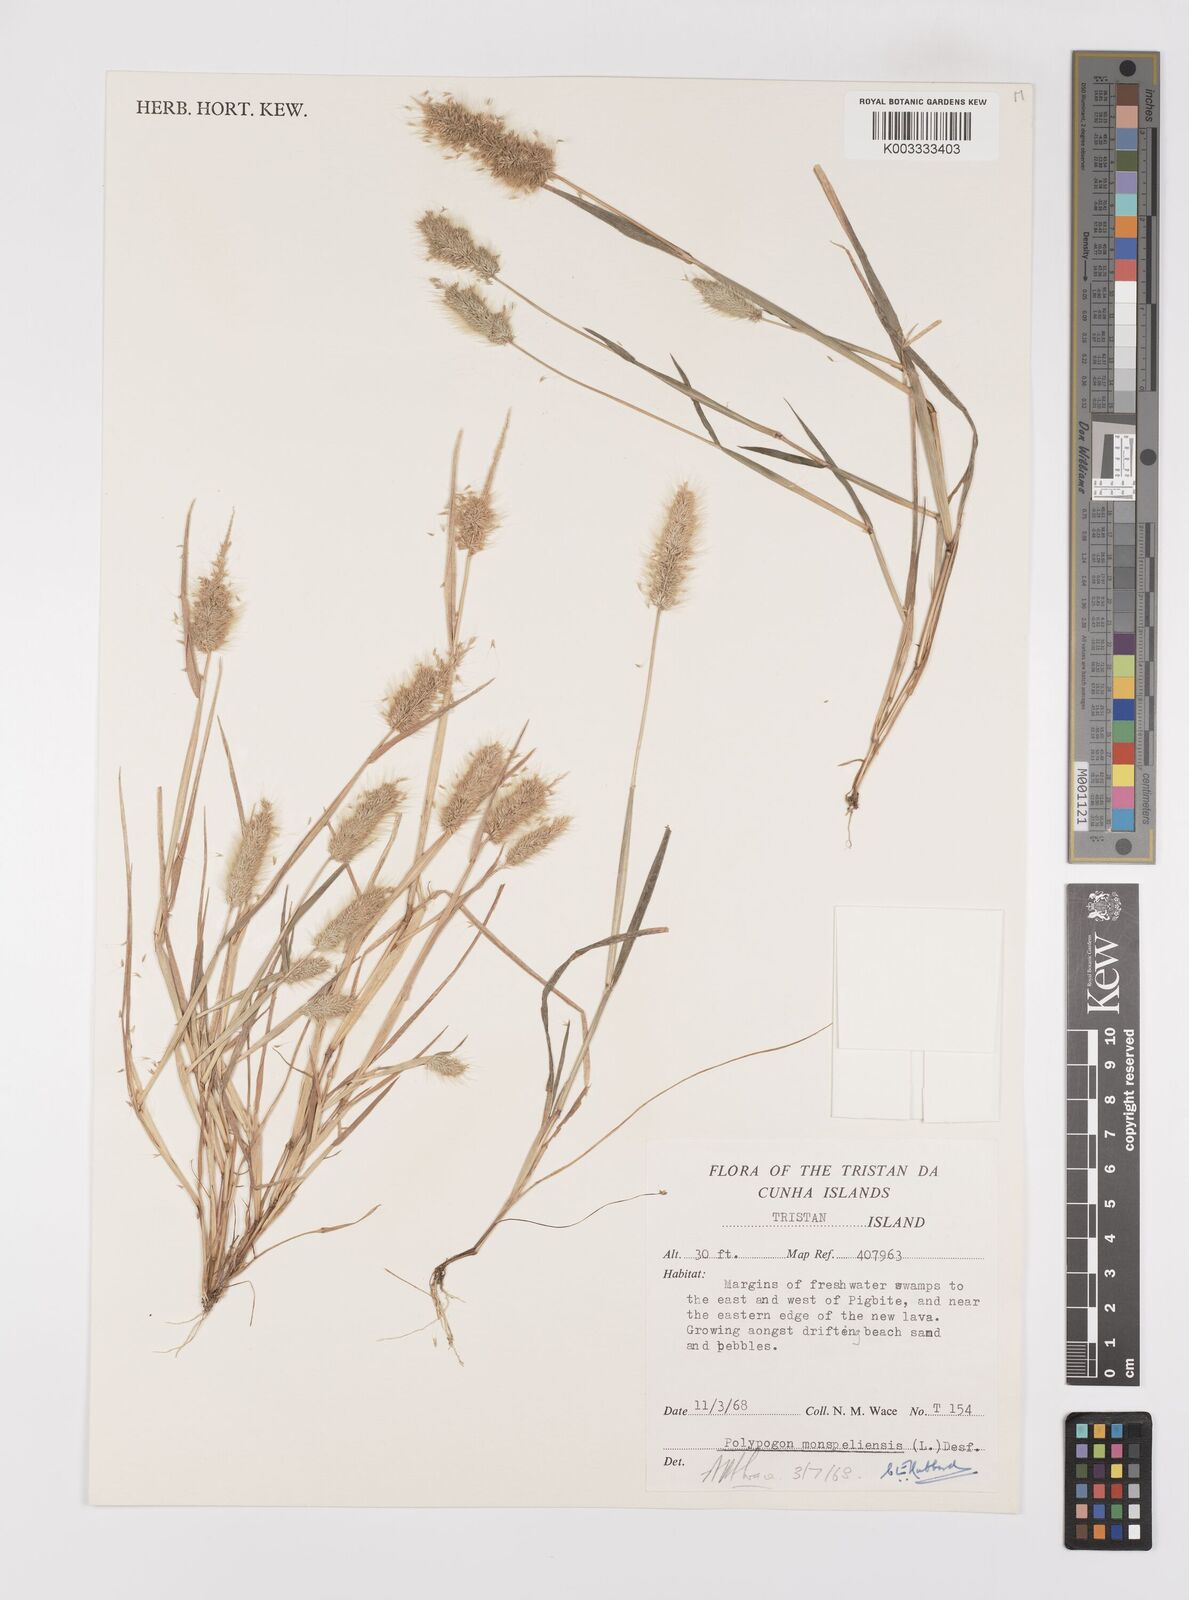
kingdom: Plantae
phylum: Tracheophyta
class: Liliopsida
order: Poales
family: Poaceae
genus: Polypogon
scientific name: Polypogon monspeliensis
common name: Annual rabbitsfoot grass
